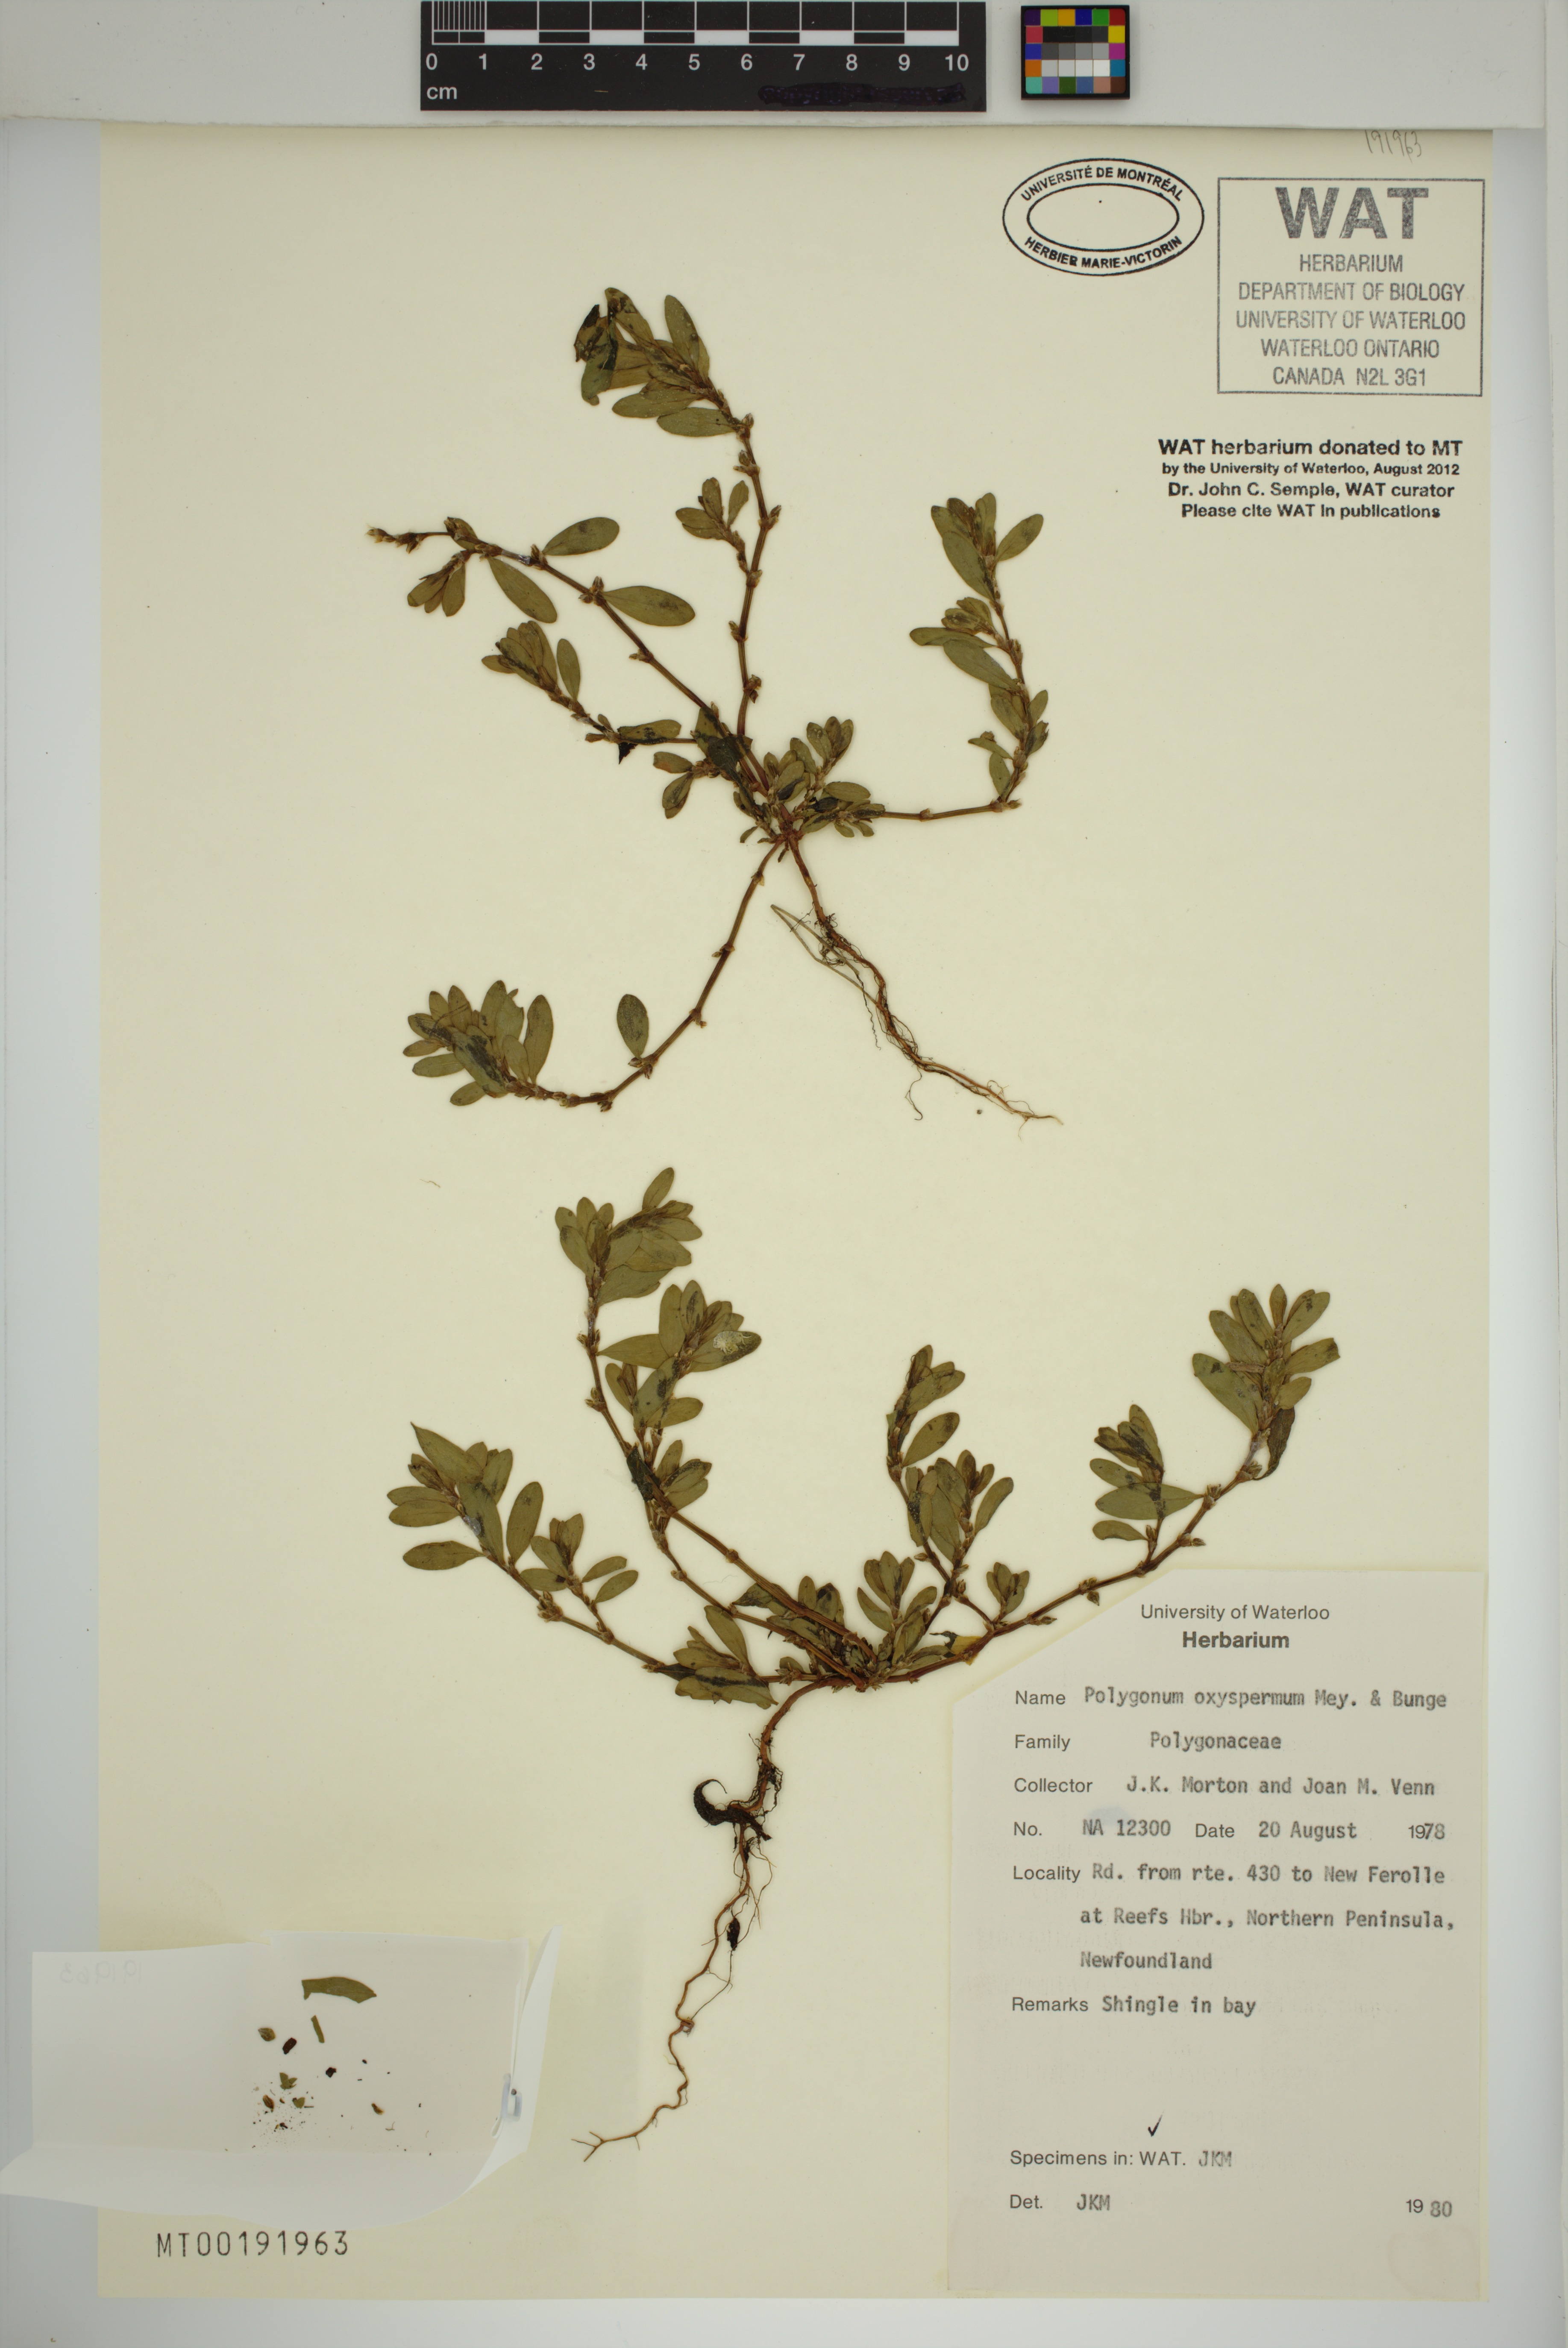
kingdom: Plantae
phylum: Tracheophyta
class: Magnoliopsida
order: Caryophyllales
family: Polygonaceae
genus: Polygonum
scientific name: Polygonum oxyspermum
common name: Ray's knotgrass
